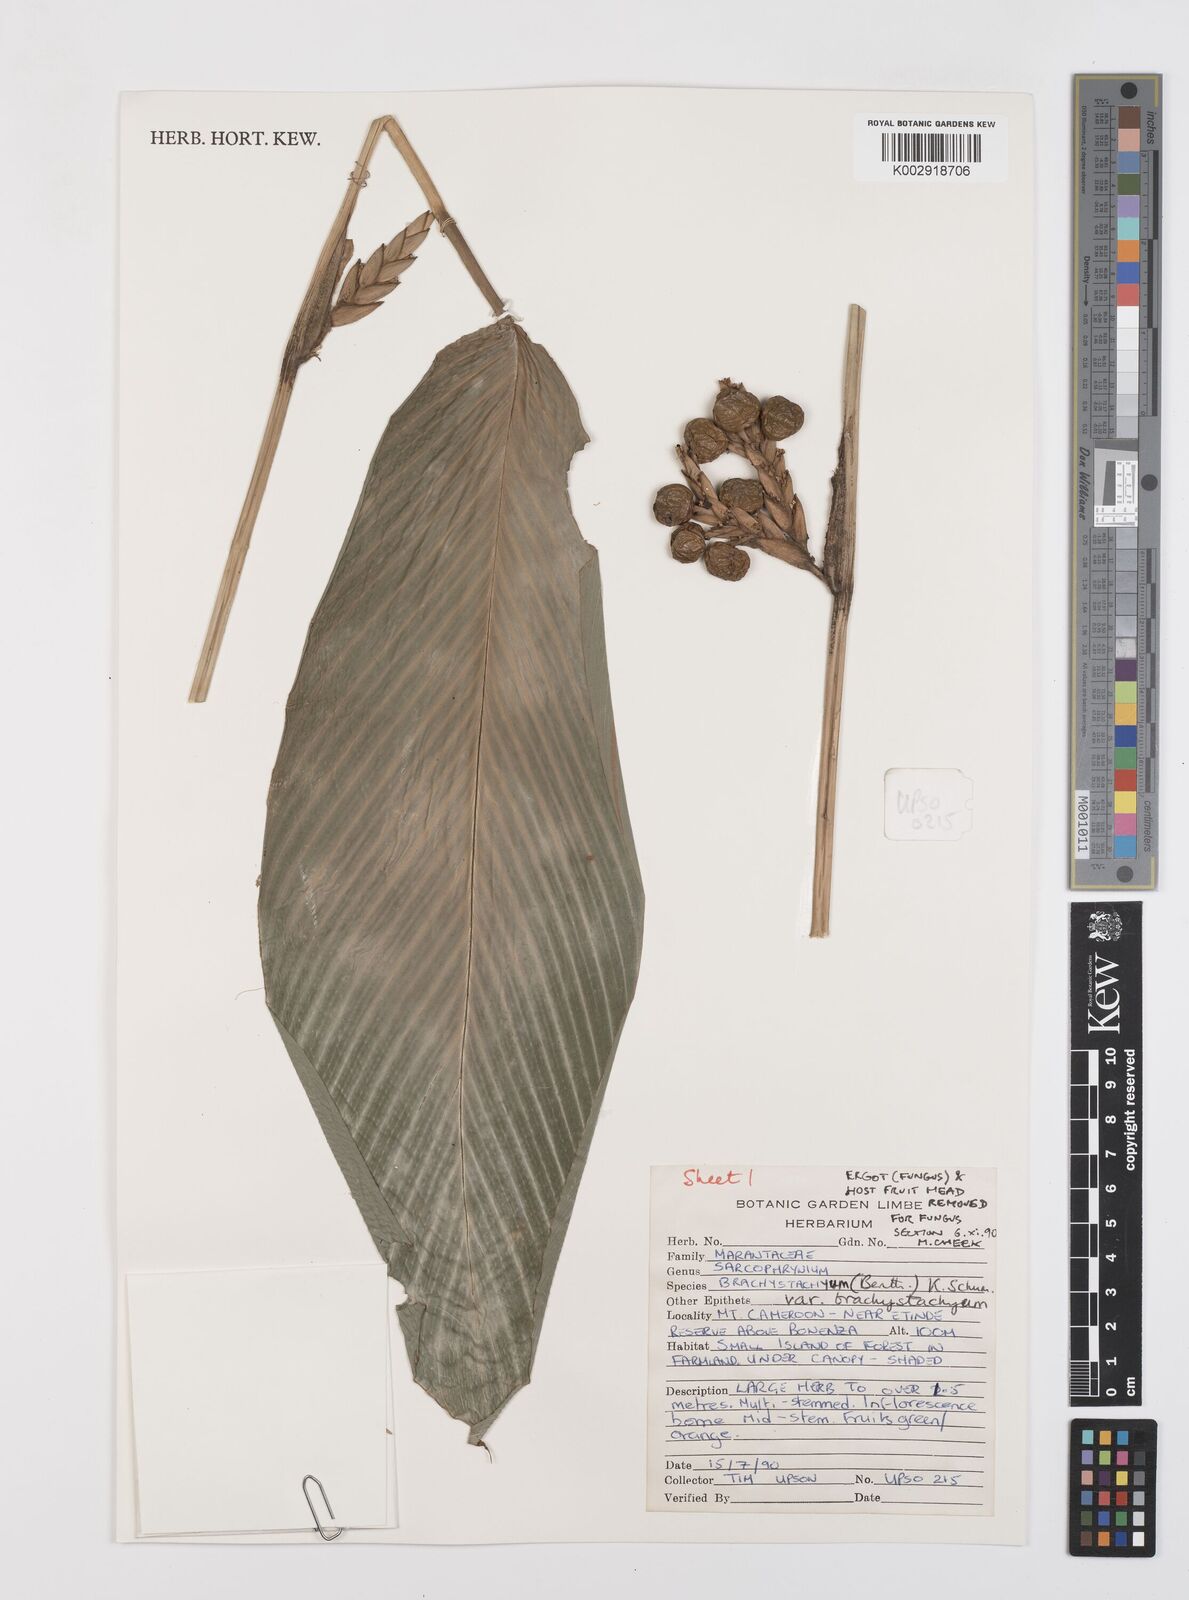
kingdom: Plantae
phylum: Tracheophyta
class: Liliopsida
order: Zingiberales
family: Marantaceae
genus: Sarcophrynium
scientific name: Sarcophrynium brachystachyum
